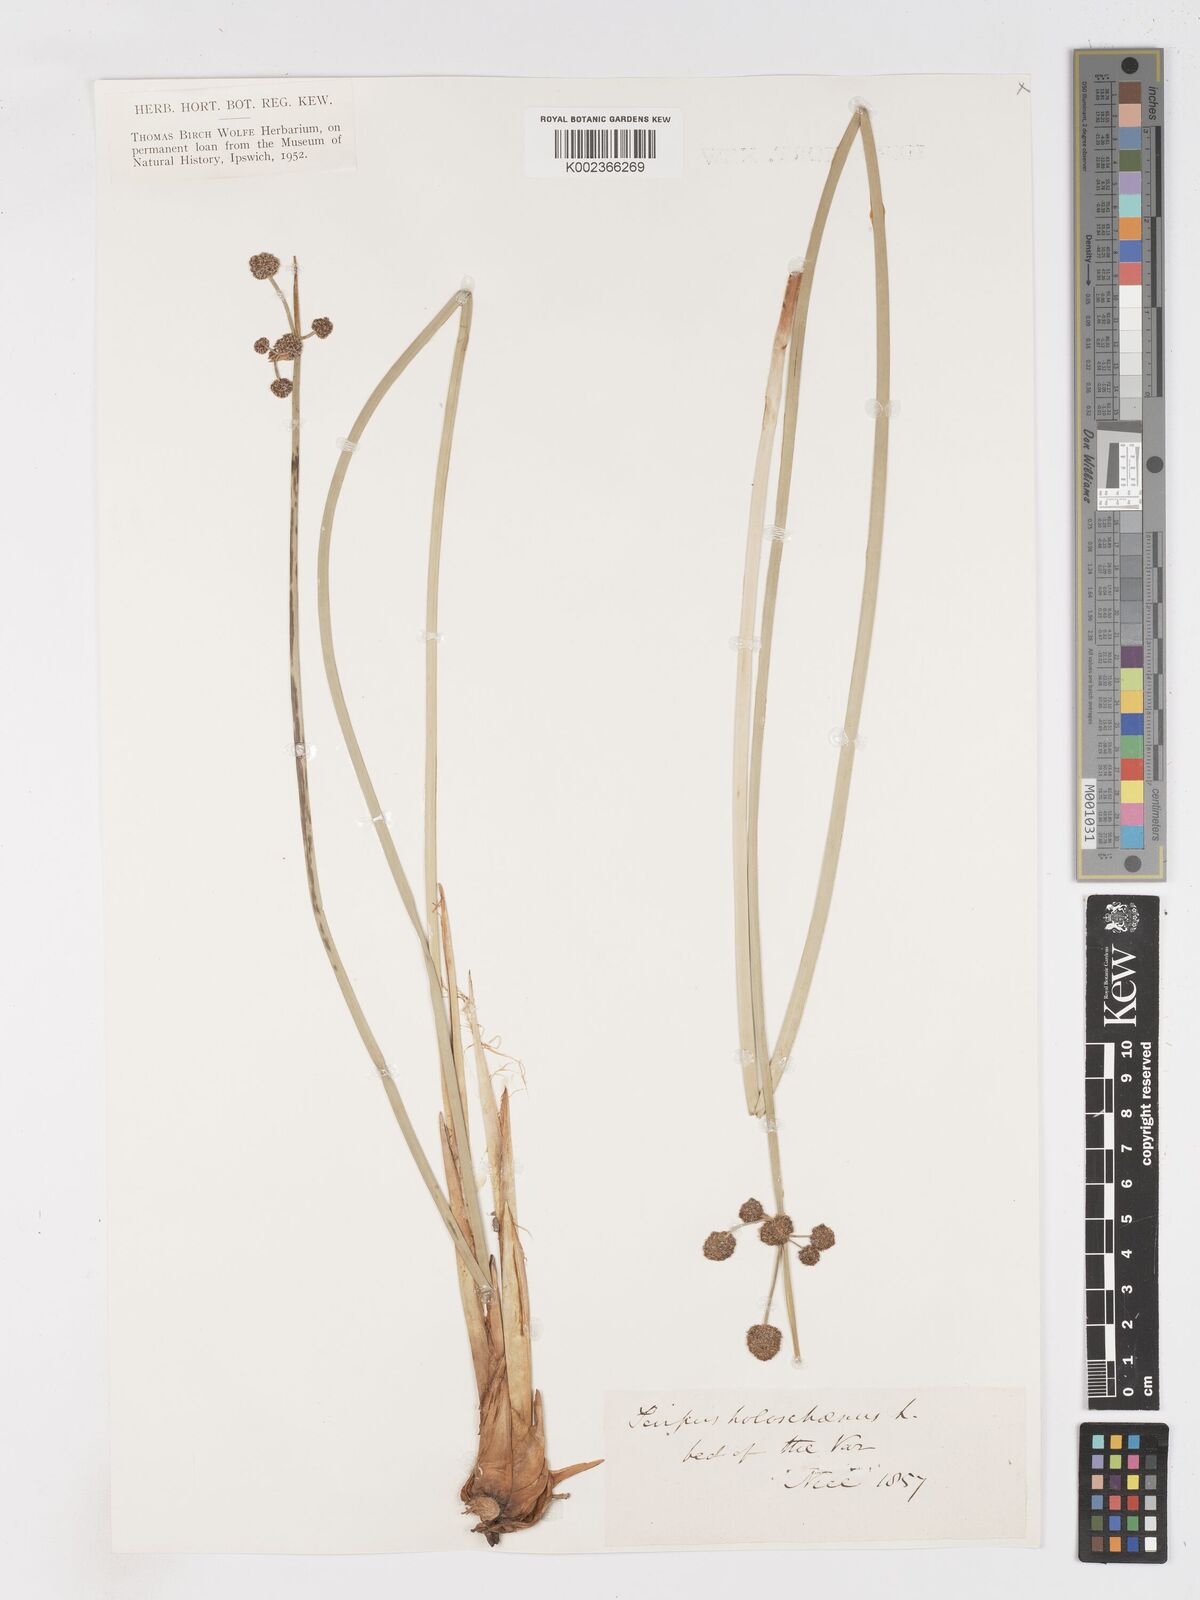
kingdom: Plantae
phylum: Tracheophyta
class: Liliopsida
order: Poales
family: Cyperaceae
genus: Scirpoides
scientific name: Scirpoides holoschoenus
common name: Round-headed club-rush
